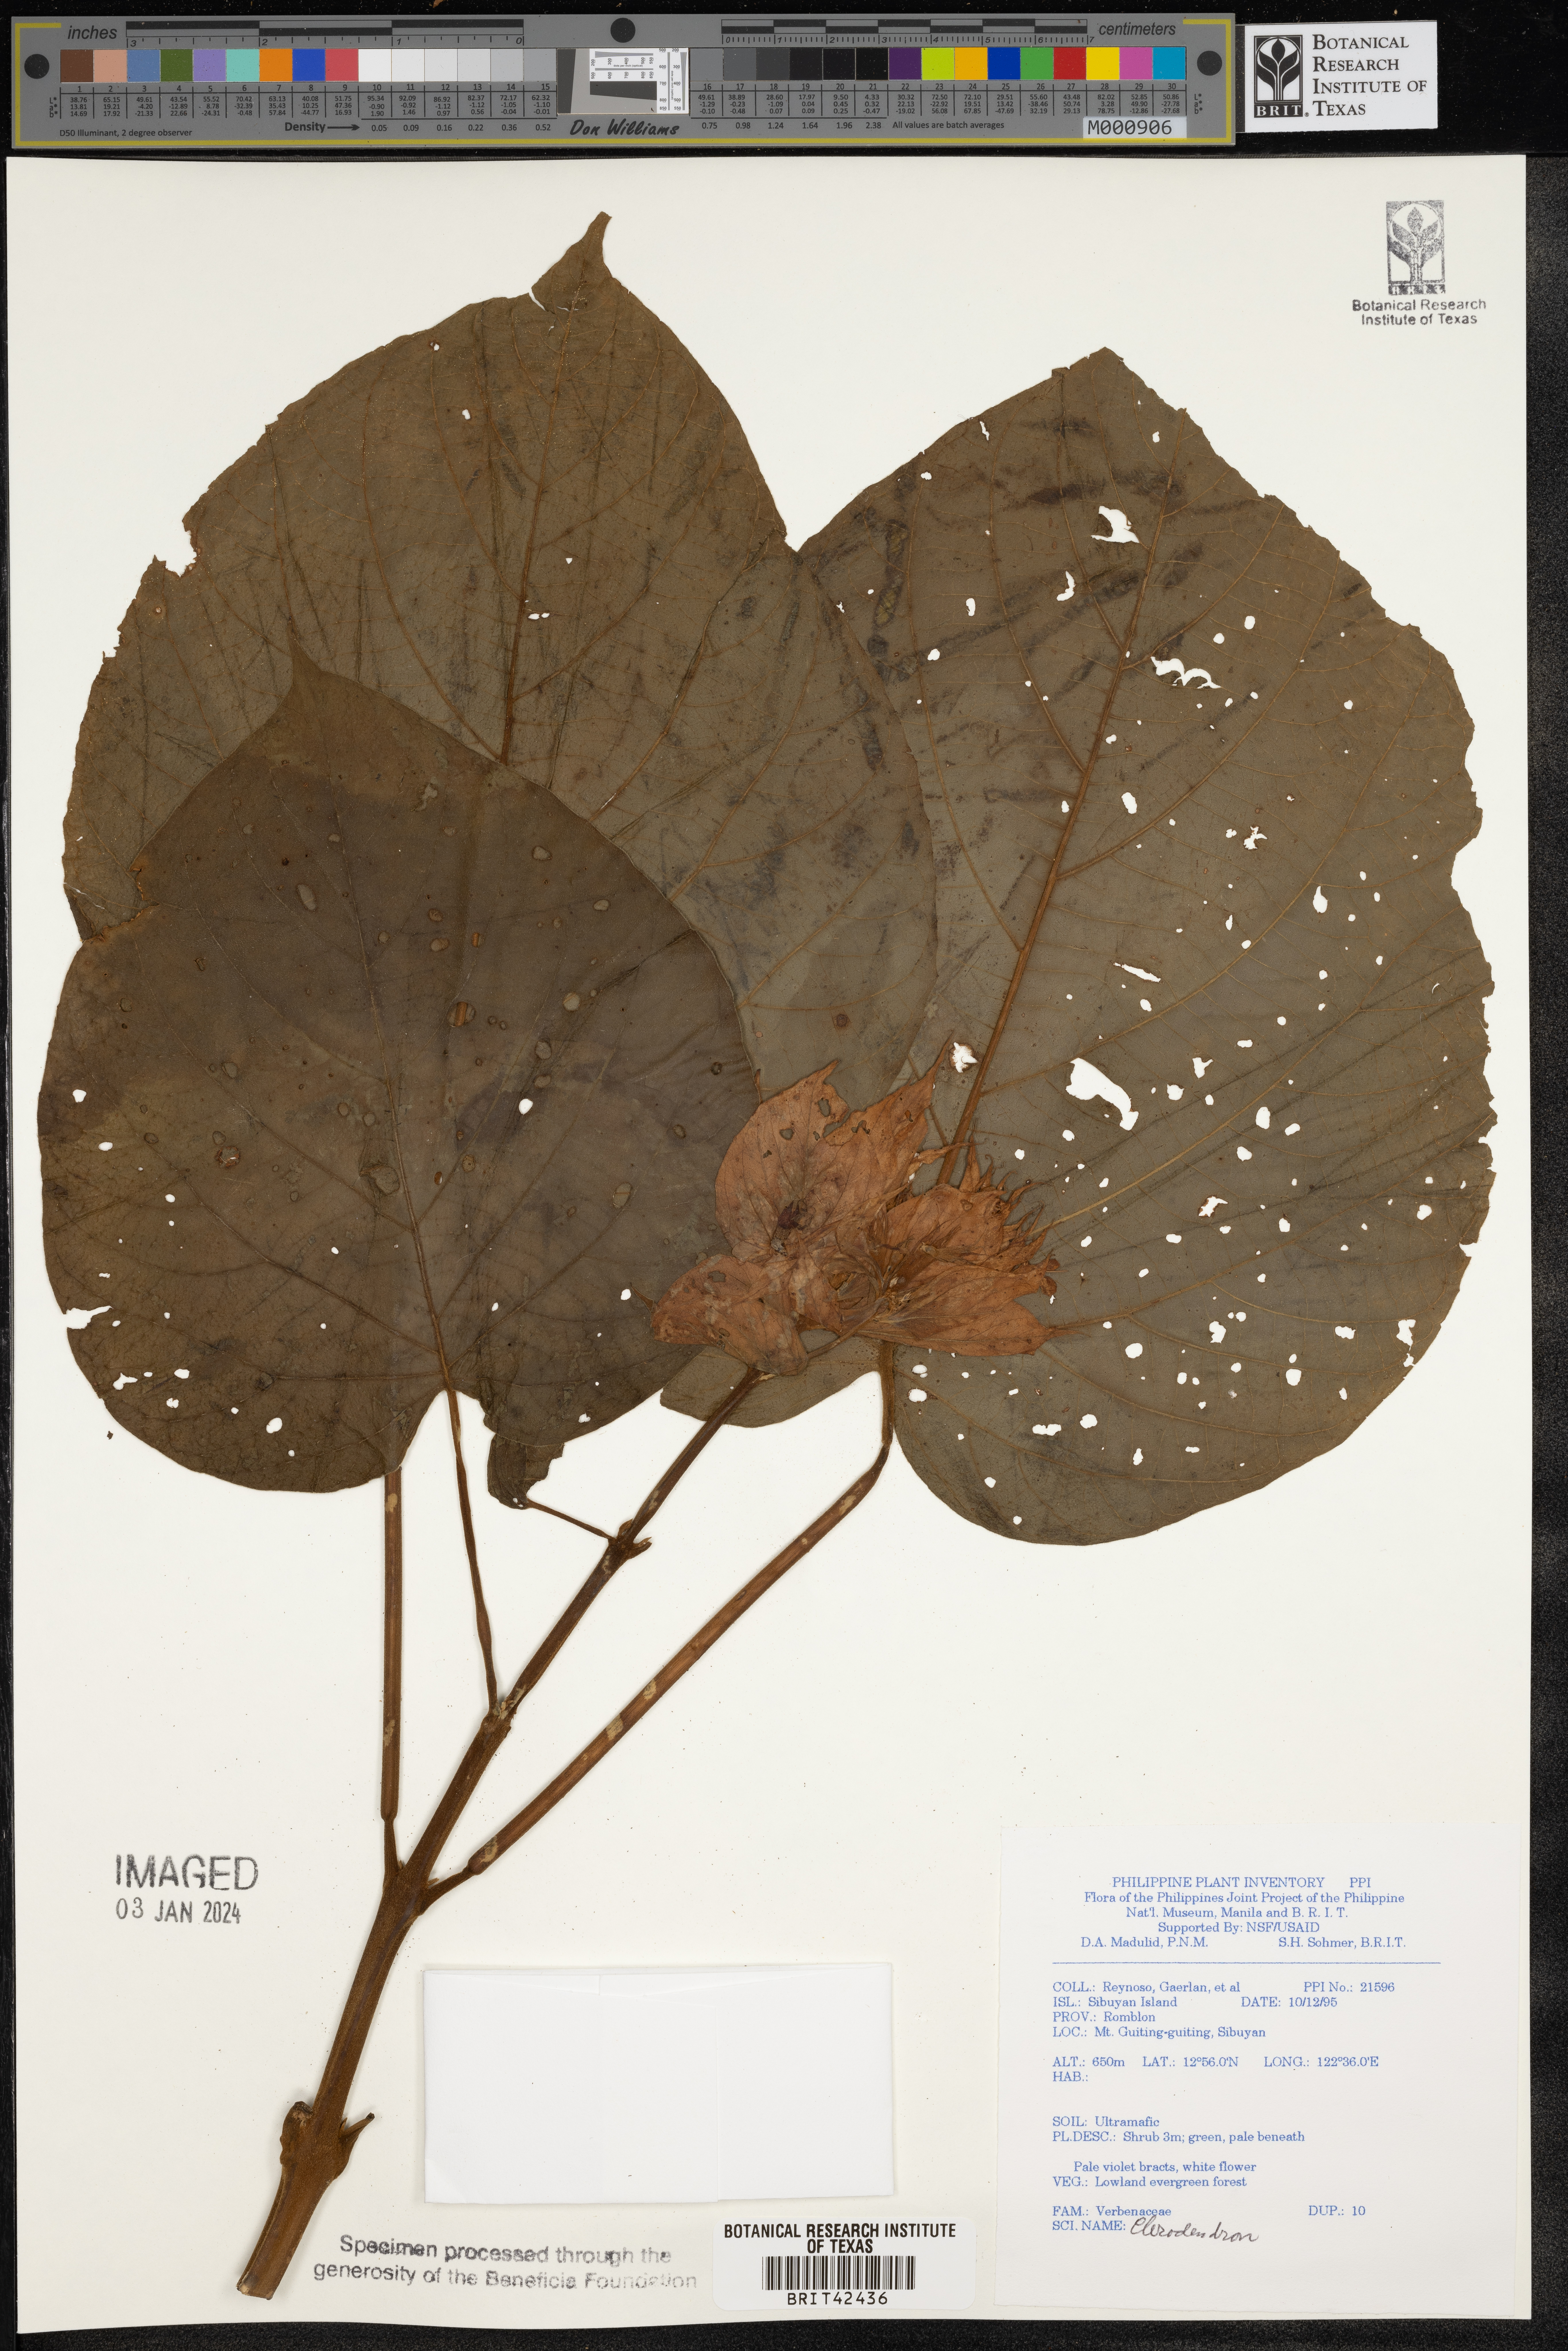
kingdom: Plantae
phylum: Tracheophyta
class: Magnoliopsida
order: Lamiales
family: Lamiaceae
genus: Clerodendrum
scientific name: Clerodendrum
